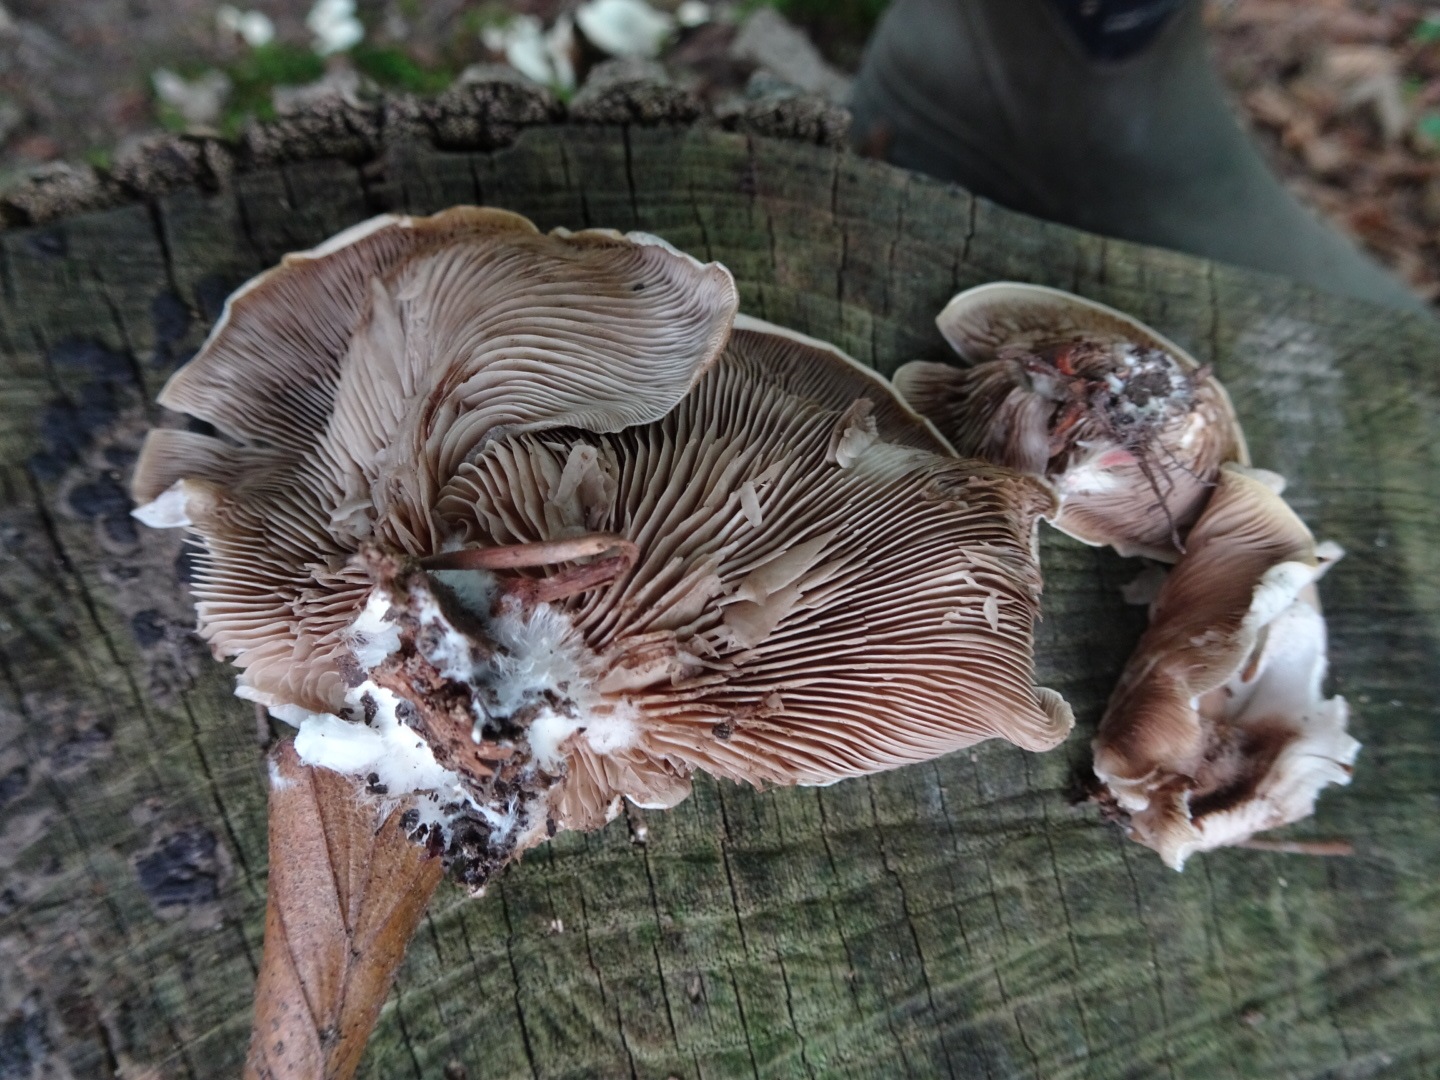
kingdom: Fungi
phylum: Basidiomycota
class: Agaricomycetes
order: Agaricales
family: Crepidotaceae
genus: Crepidotus
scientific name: Crepidotus autochthonus
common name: skæv muslingesvamp
